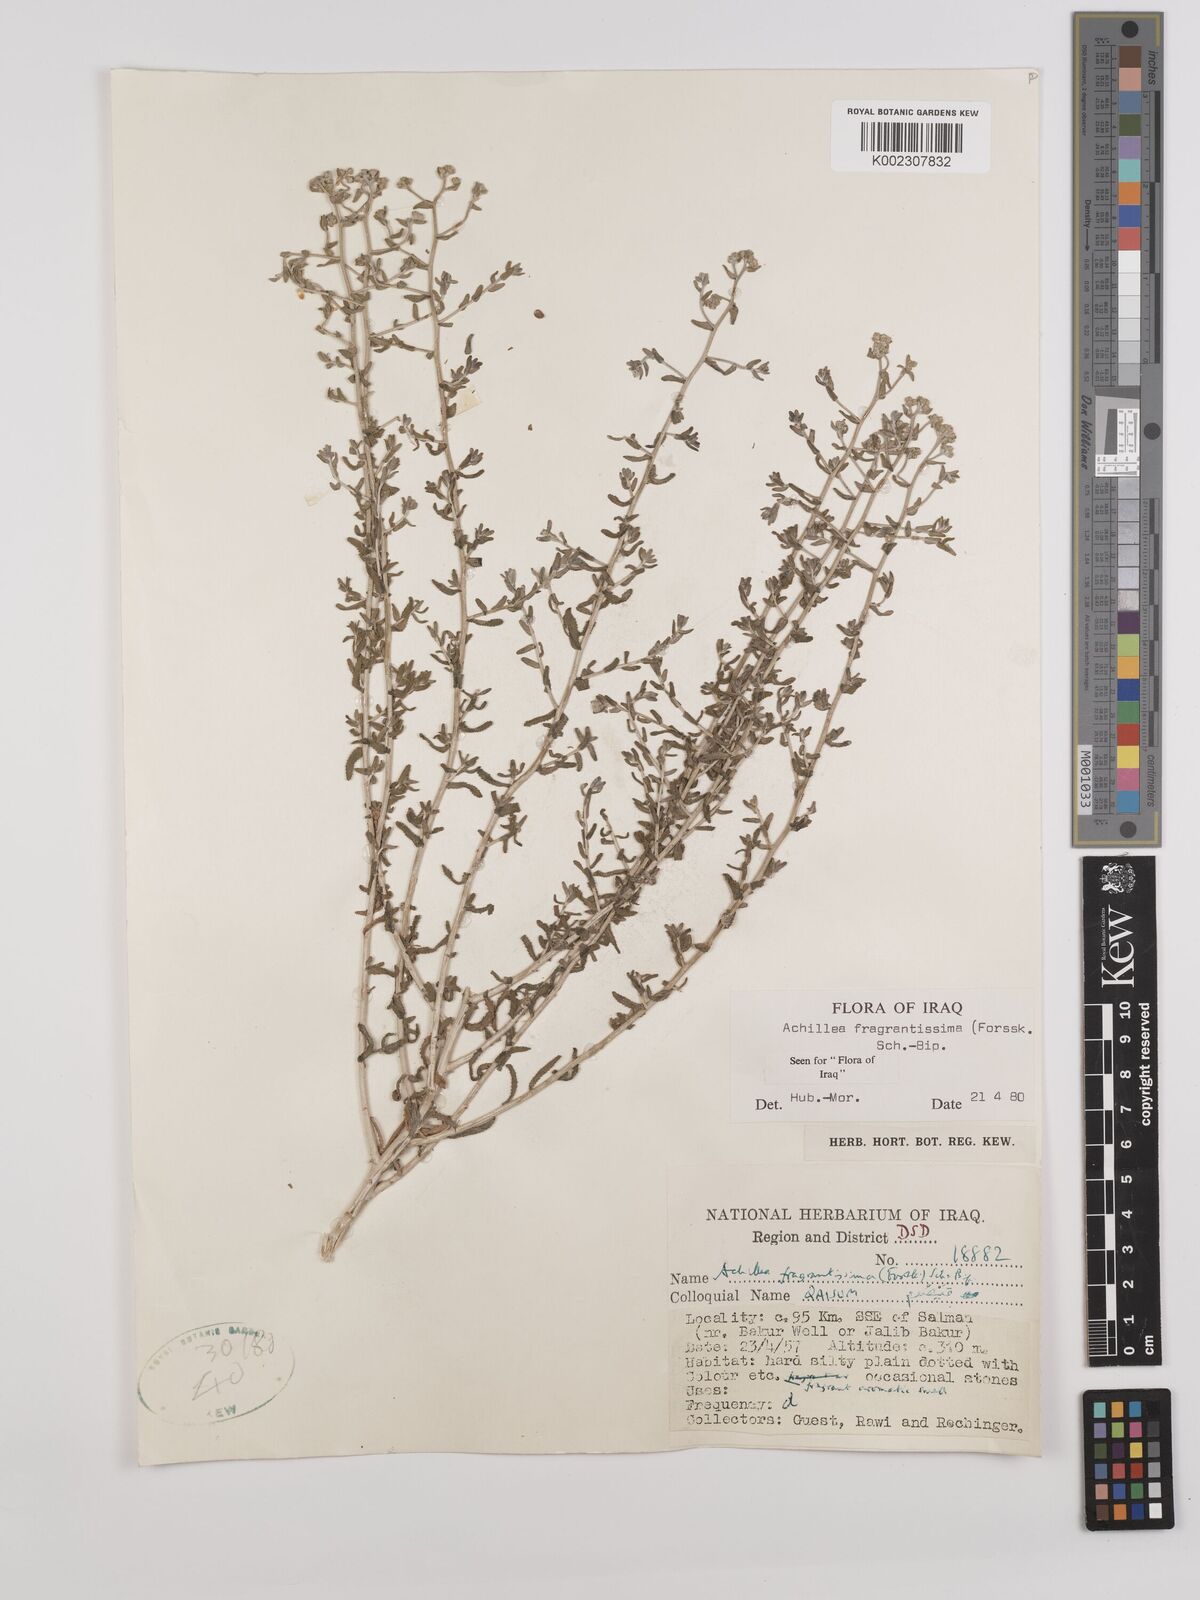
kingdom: Plantae
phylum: Tracheophyta
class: Magnoliopsida
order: Asterales
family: Asteraceae
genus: Achillea
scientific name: Achillea fragrantissima
